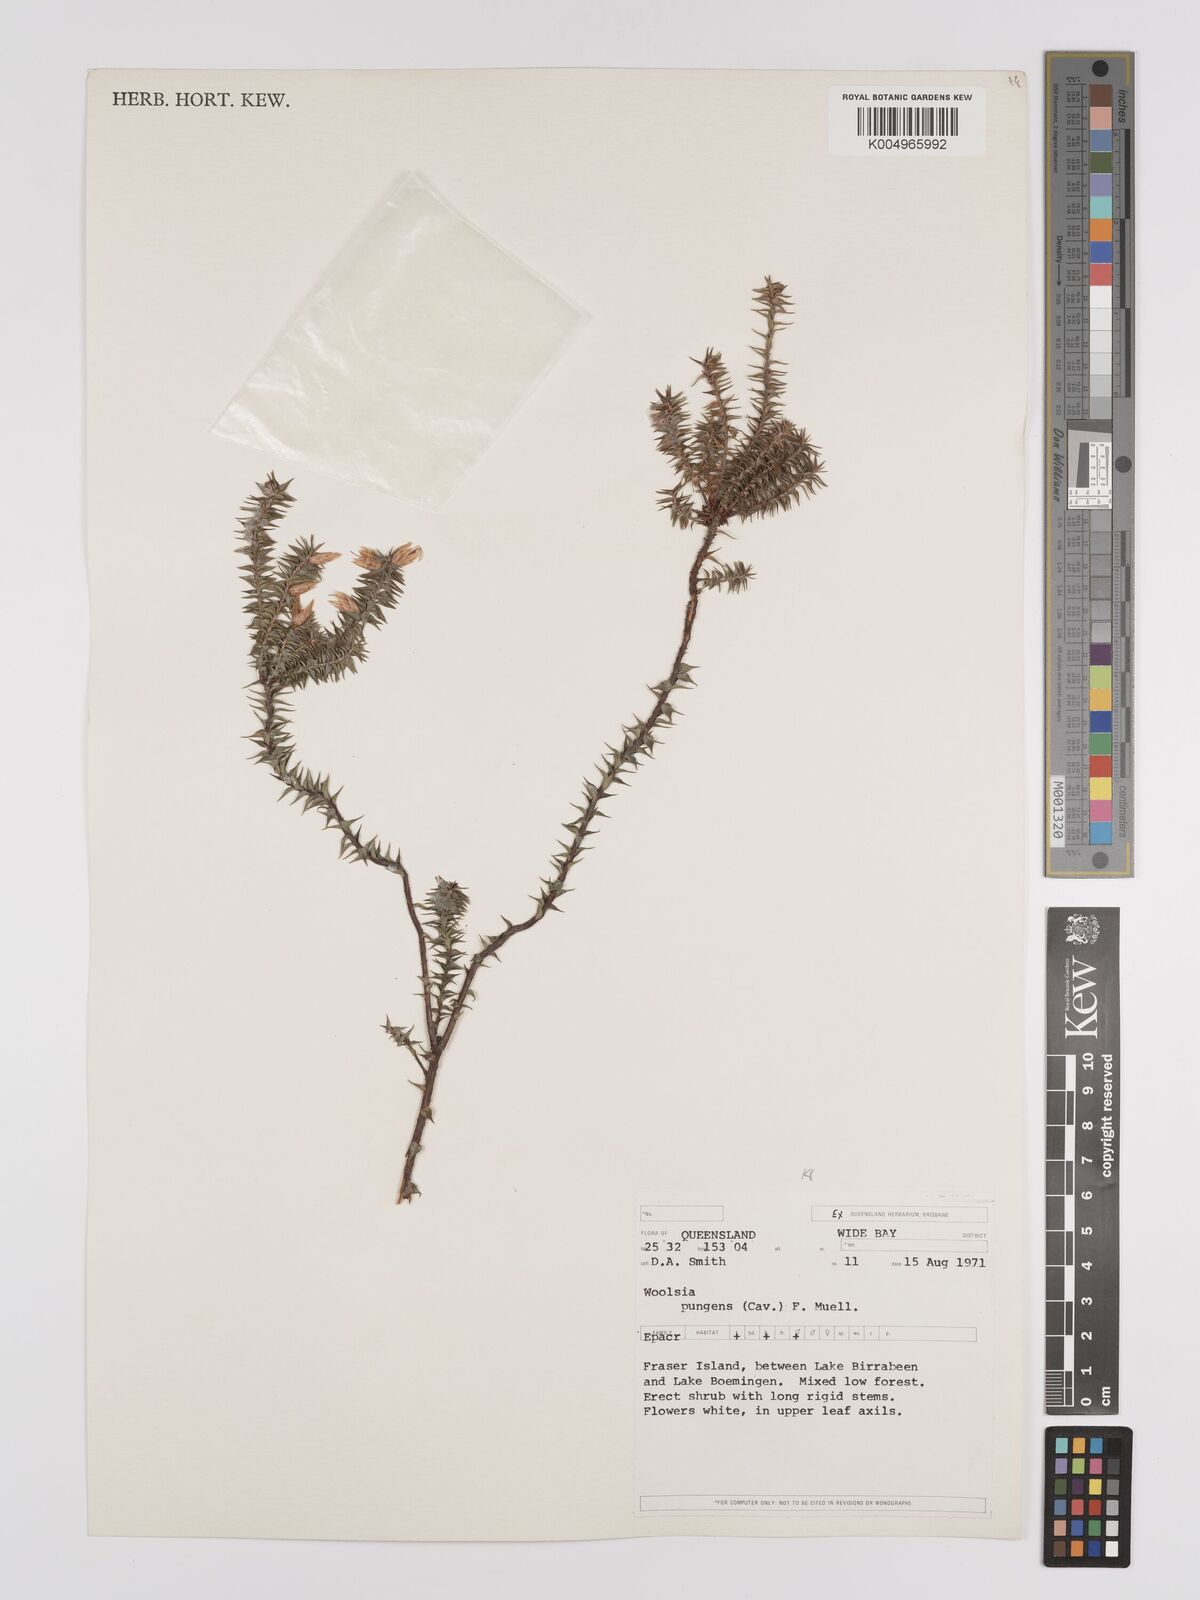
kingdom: Plantae
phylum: Tracheophyta
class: Magnoliopsida
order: Ericales
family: Ericaceae
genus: Woollsia
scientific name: Woollsia pungens
